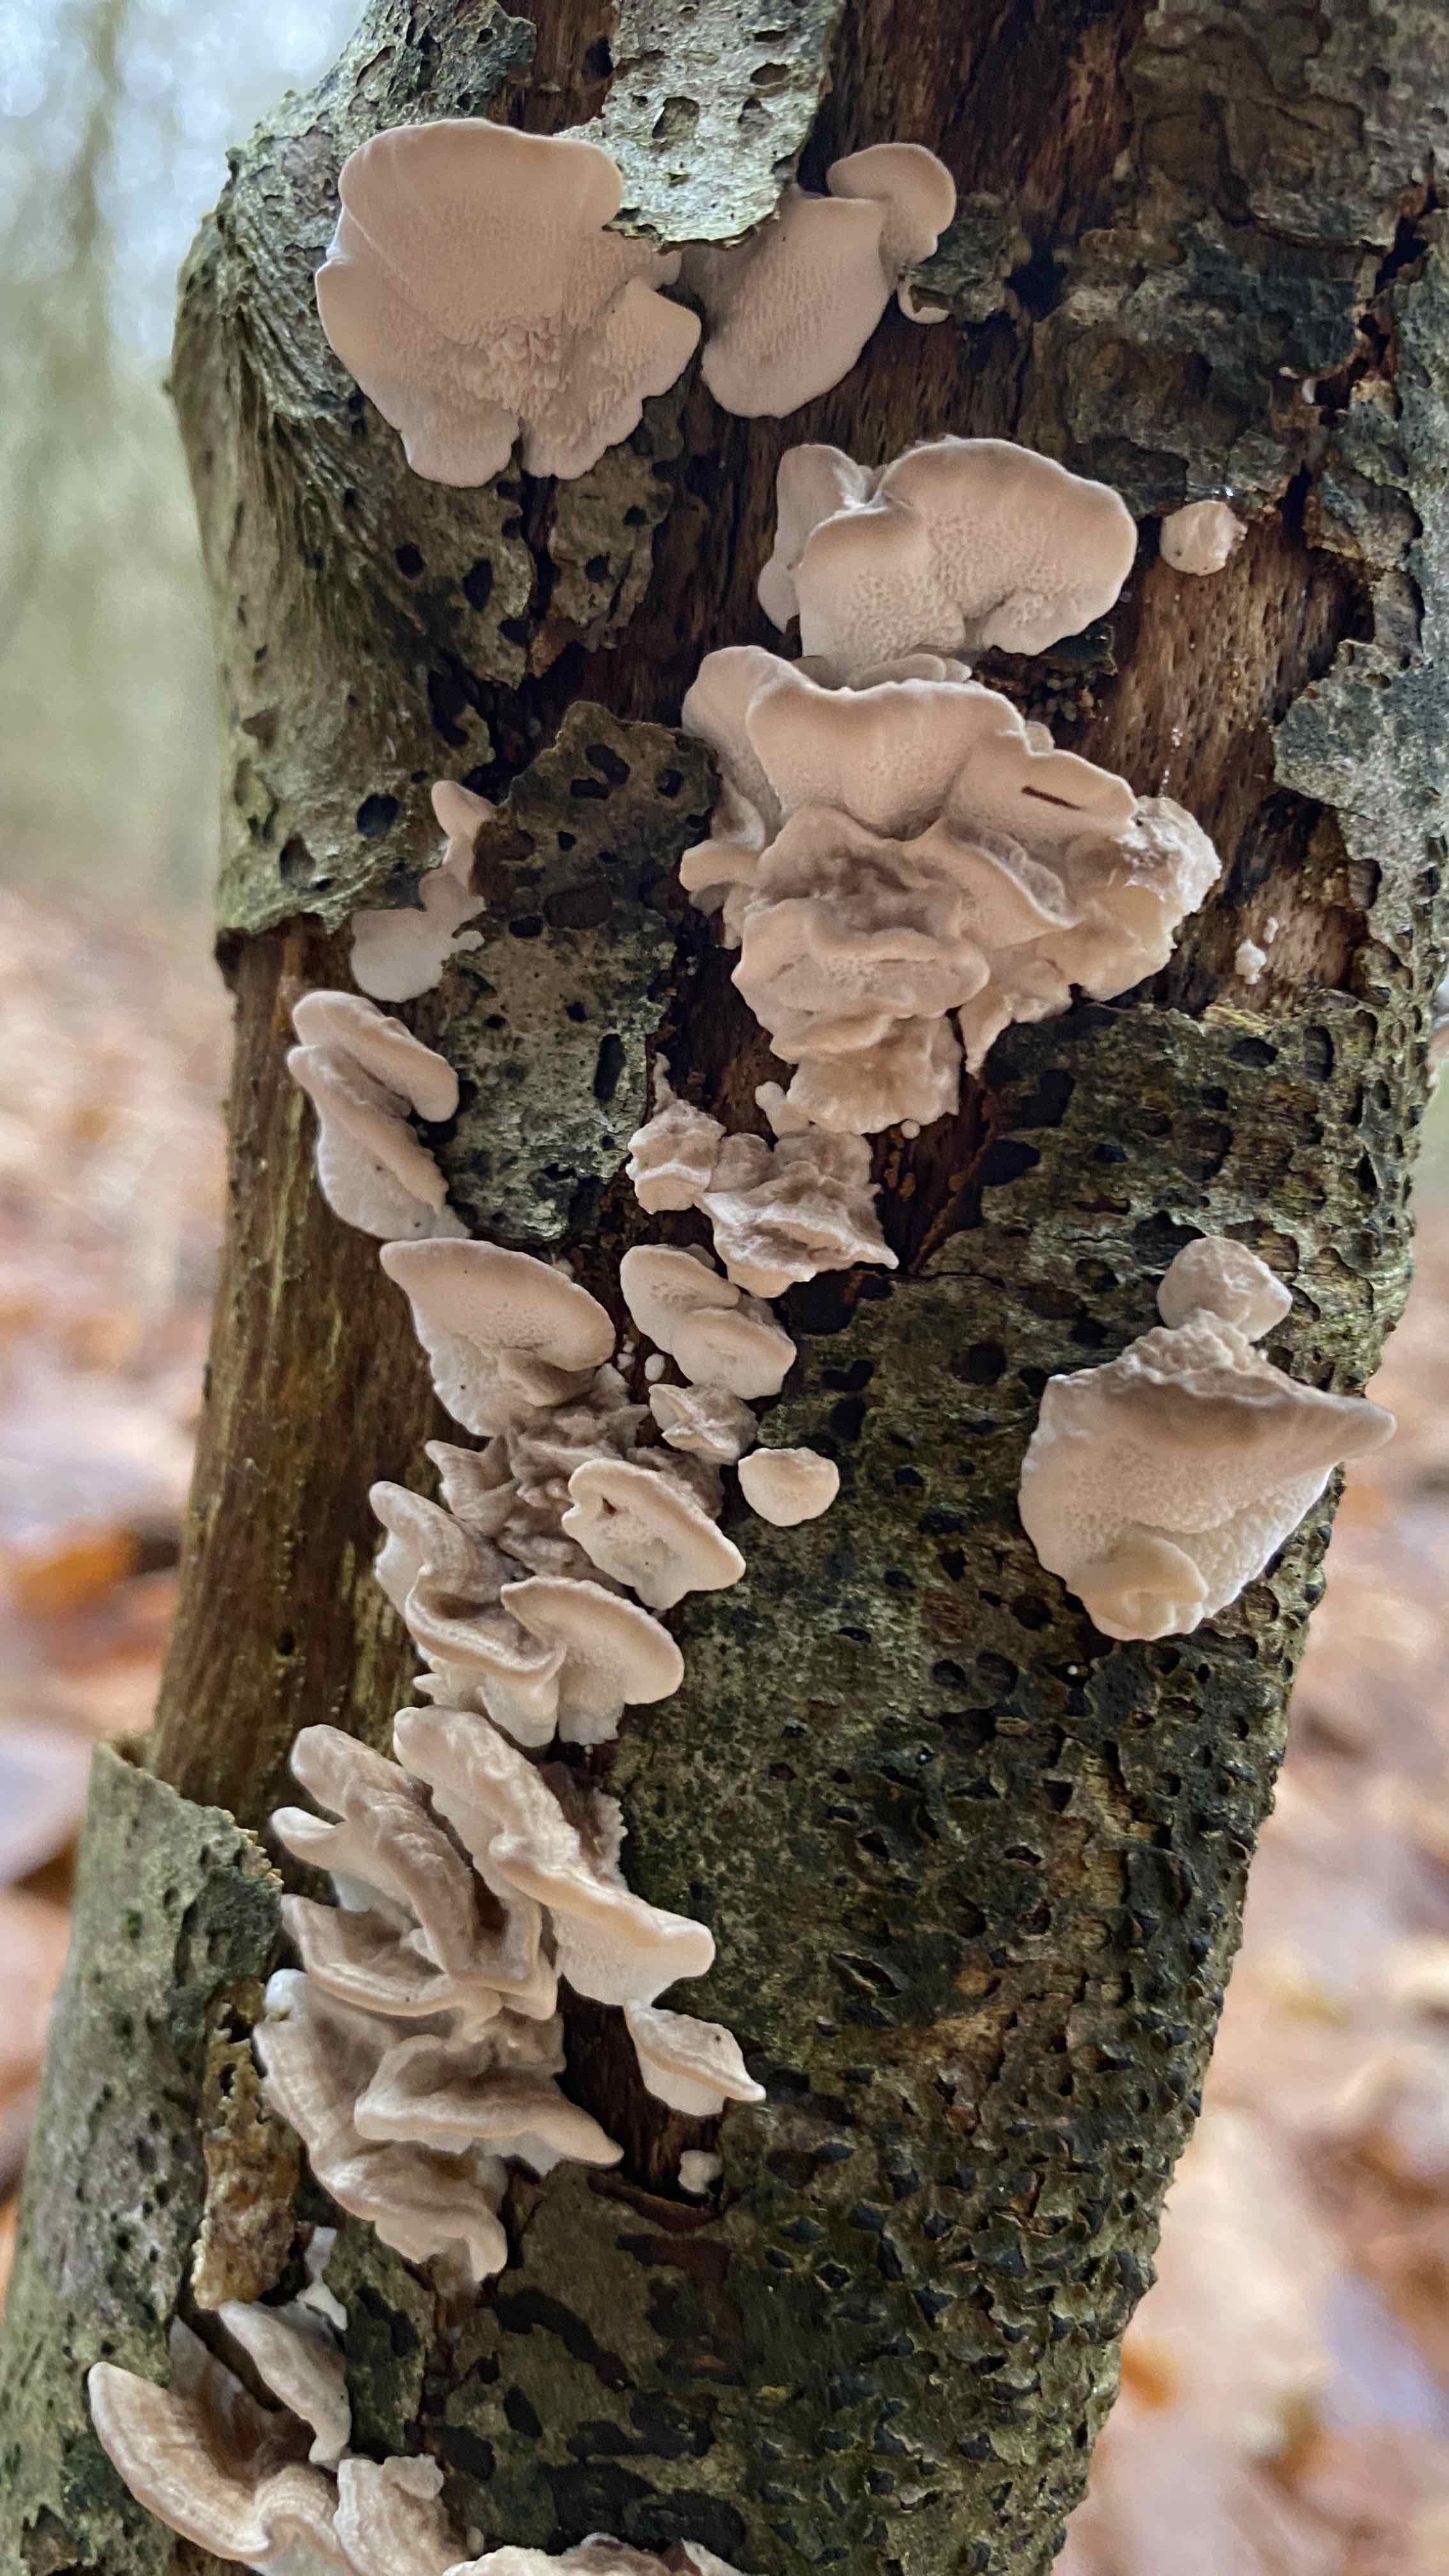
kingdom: Fungi
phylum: Basidiomycota
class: Agaricomycetes
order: Polyporales
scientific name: Polyporales
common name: poresvampordenen
